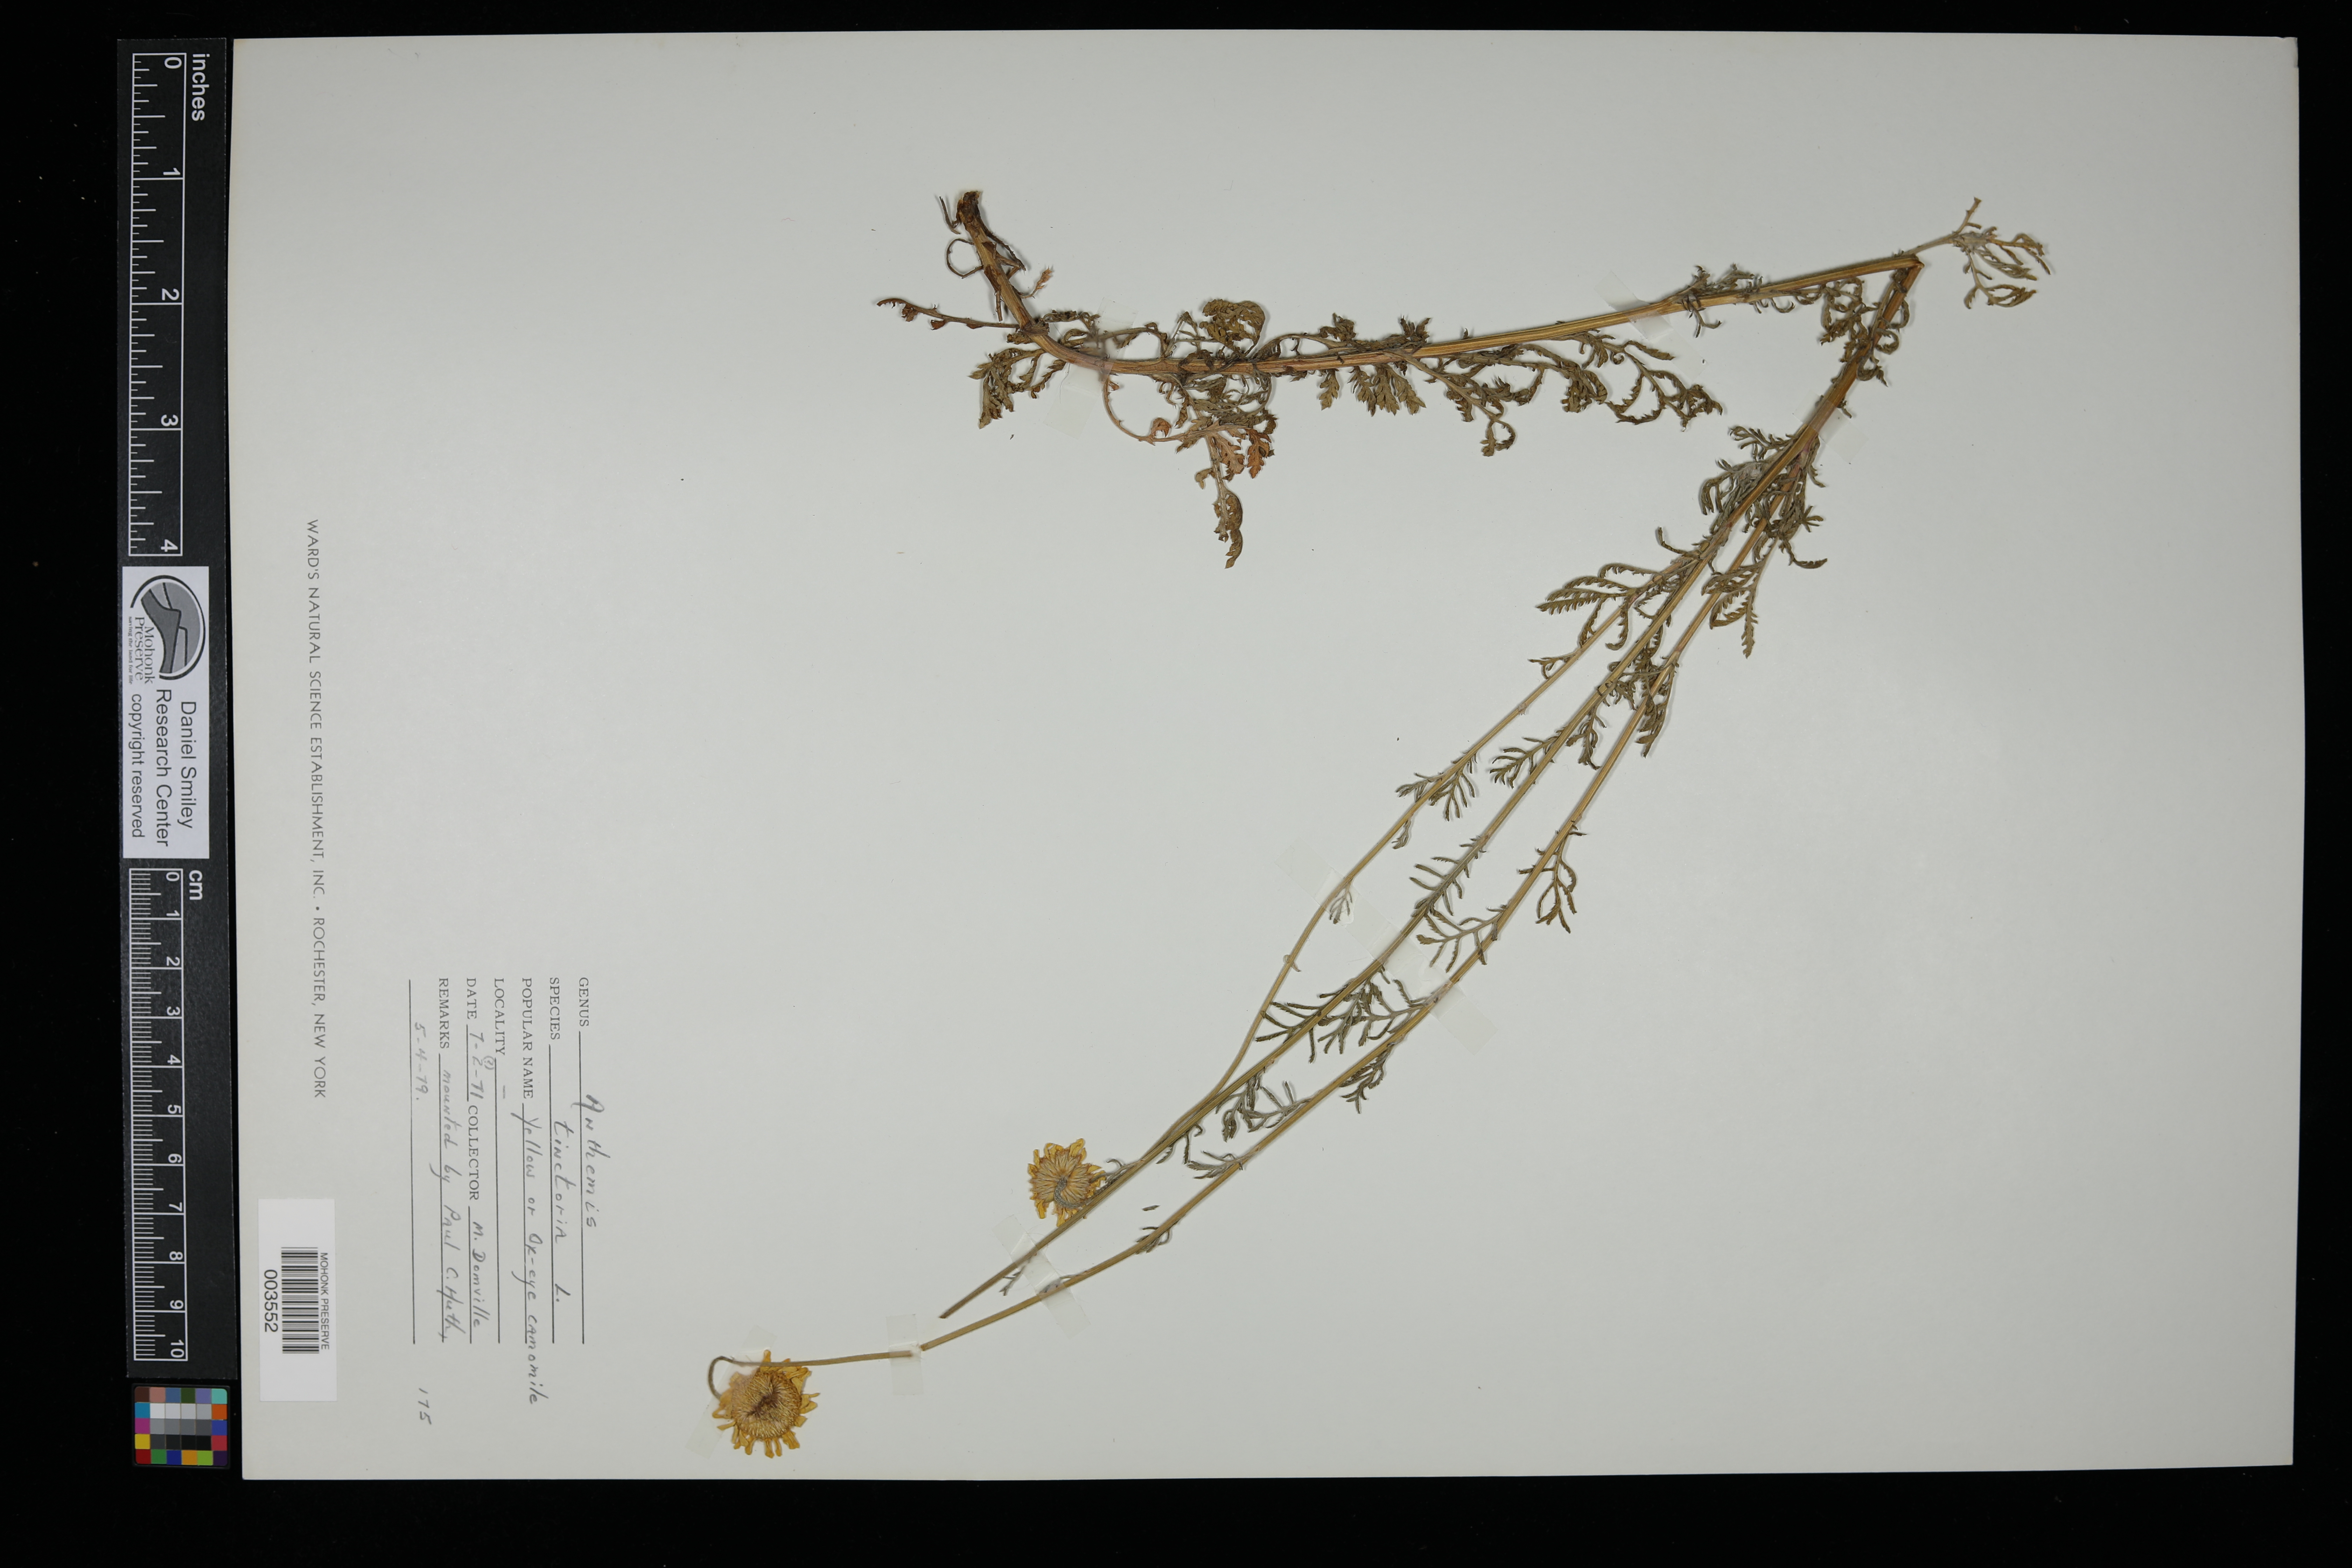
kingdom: Plantae
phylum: Tracheophyta
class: Magnoliopsida
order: Asterales
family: Asteraceae
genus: Cota
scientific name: Cota tinctoria
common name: Golden chamomile
